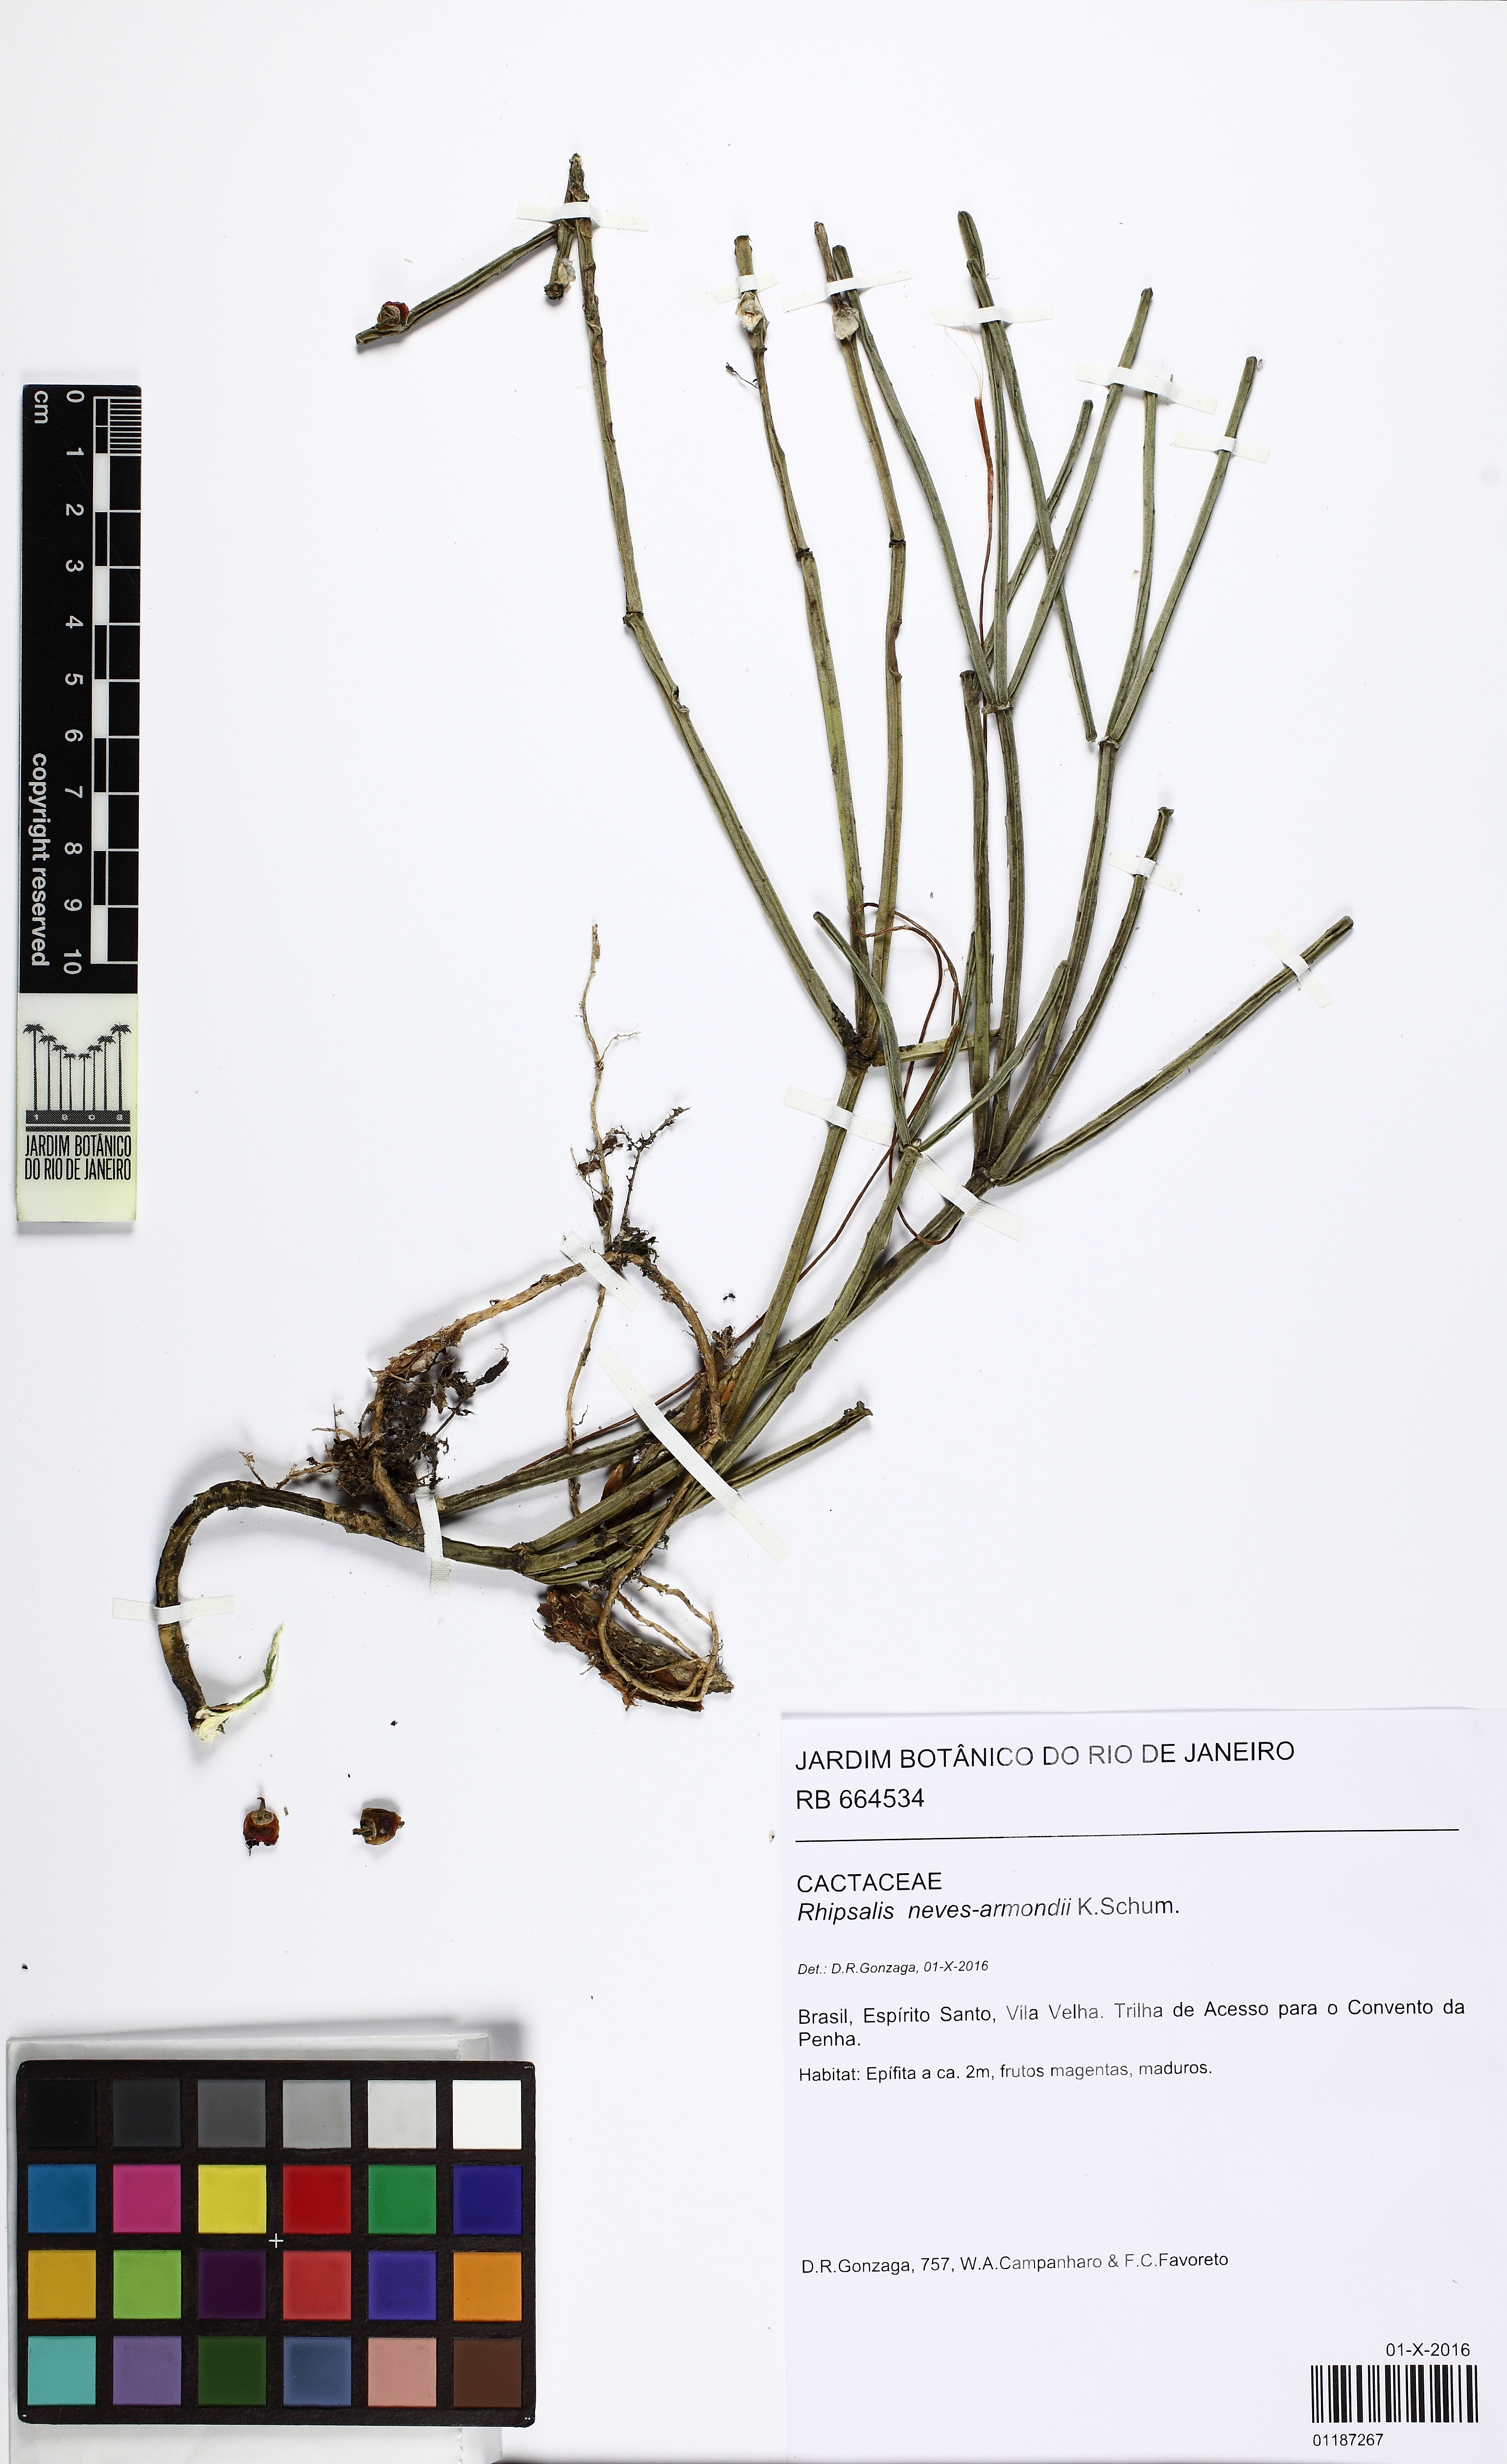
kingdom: Plantae
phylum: Tracheophyta
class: Magnoliopsida
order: Caryophyllales
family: Cactaceae
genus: Rhipsalis
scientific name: Rhipsalis neves-armondii
